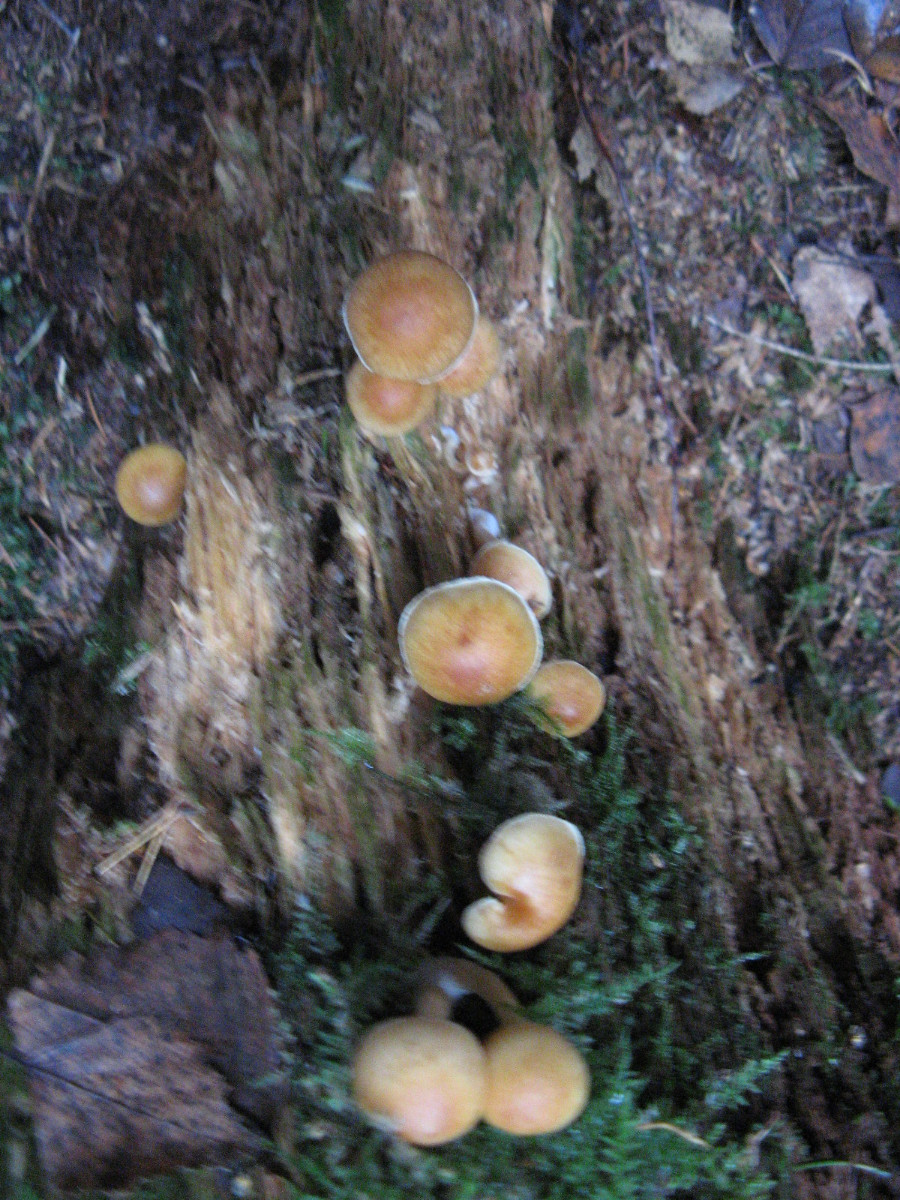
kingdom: Fungi
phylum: Basidiomycota
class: Agaricomycetes
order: Agaricales
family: Hymenogastraceae
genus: Gymnopilus
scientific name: Gymnopilus penetrans
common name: plettet flammehat
